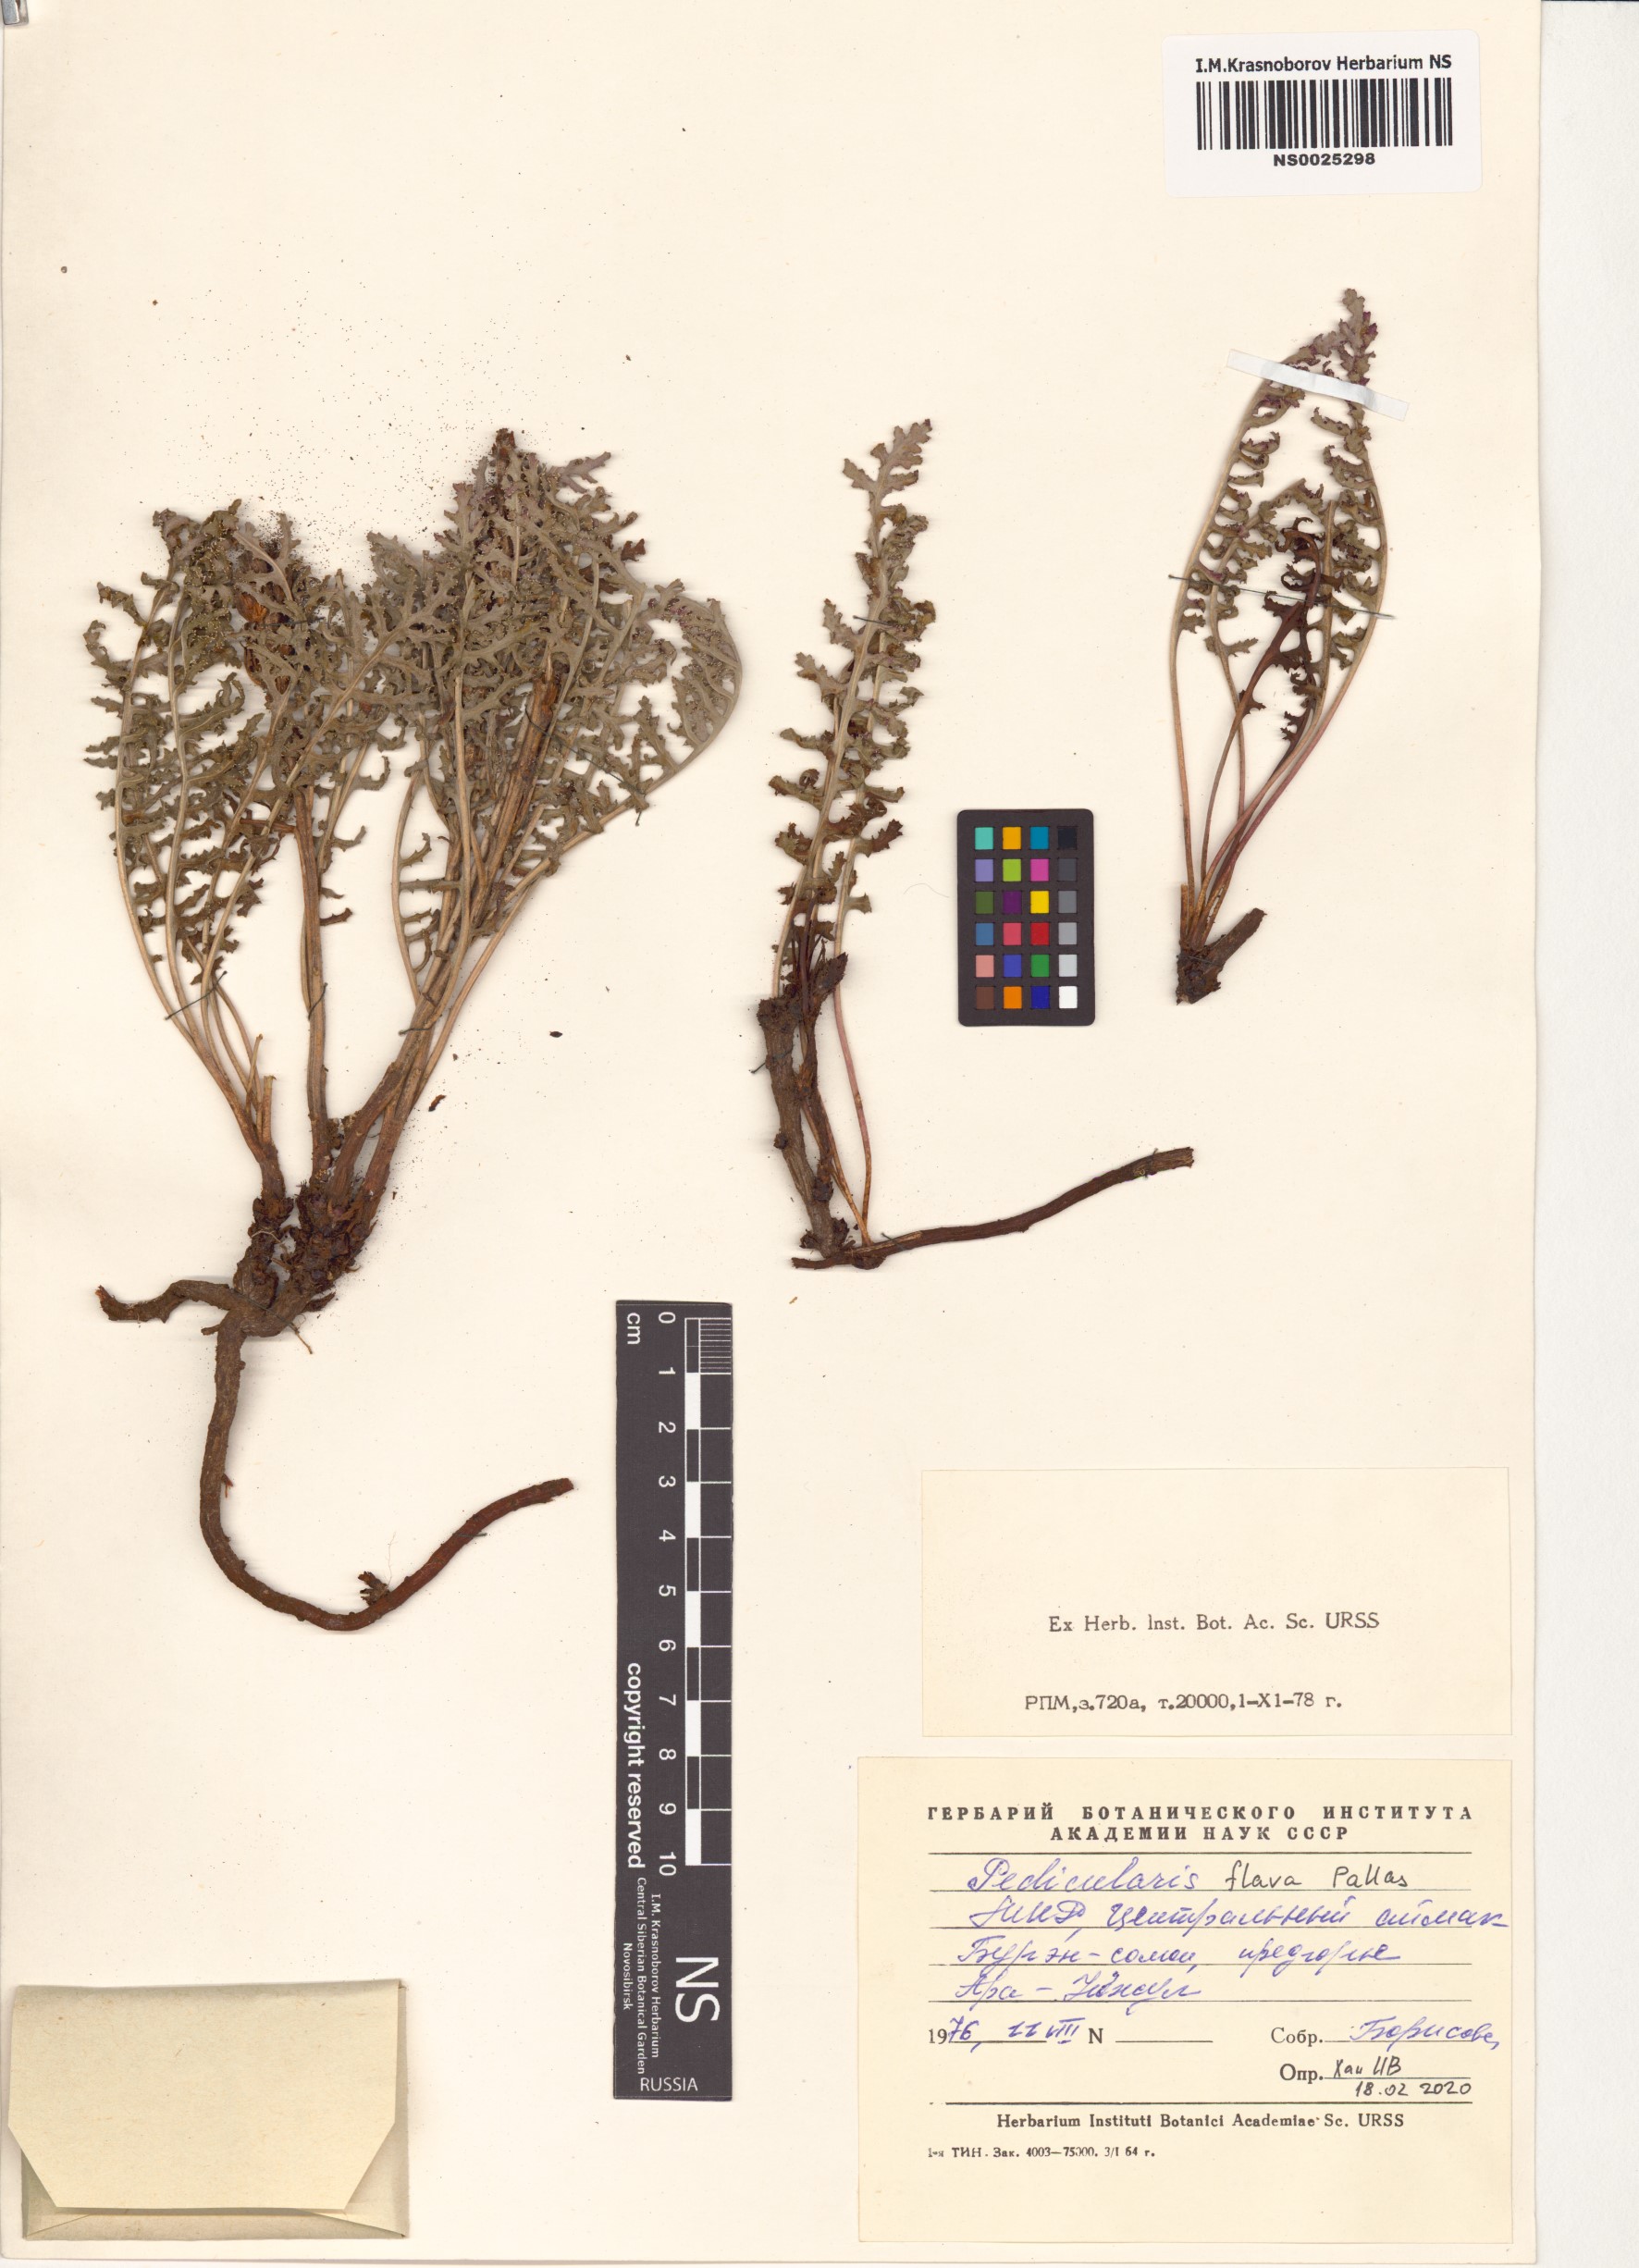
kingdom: Plantae
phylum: Tracheophyta
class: Magnoliopsida
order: Lamiales
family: Orobanchaceae
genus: Pedicularis
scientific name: Pedicularis flava
